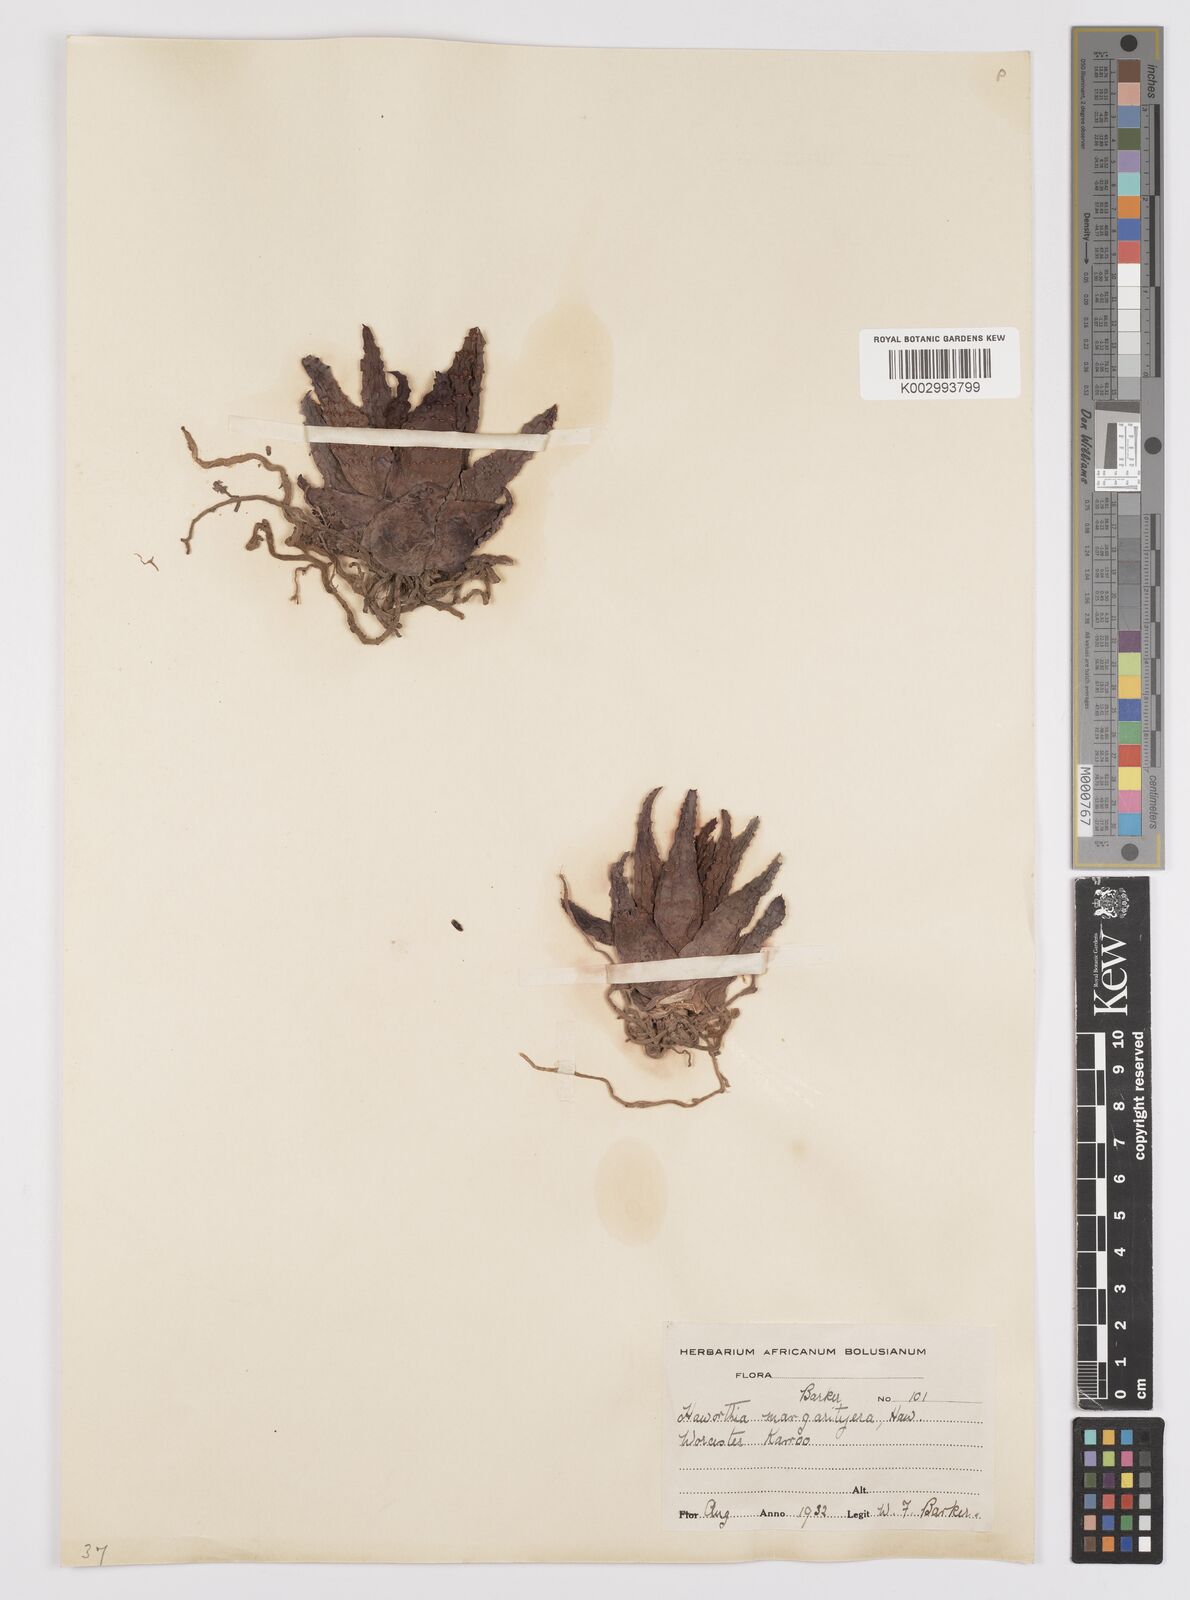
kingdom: Plantae
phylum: Tracheophyta
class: Liliopsida
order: Asparagales
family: Asphodelaceae
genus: Tulista
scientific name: Tulista pumila
